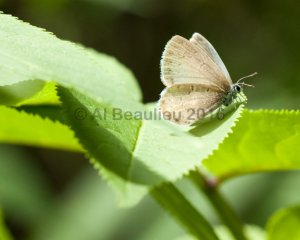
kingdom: Animalia
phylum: Arthropoda
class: Insecta
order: Lepidoptera
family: Lycaenidae
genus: Celastrina
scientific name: Celastrina lucia
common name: Northern Spring Azure
